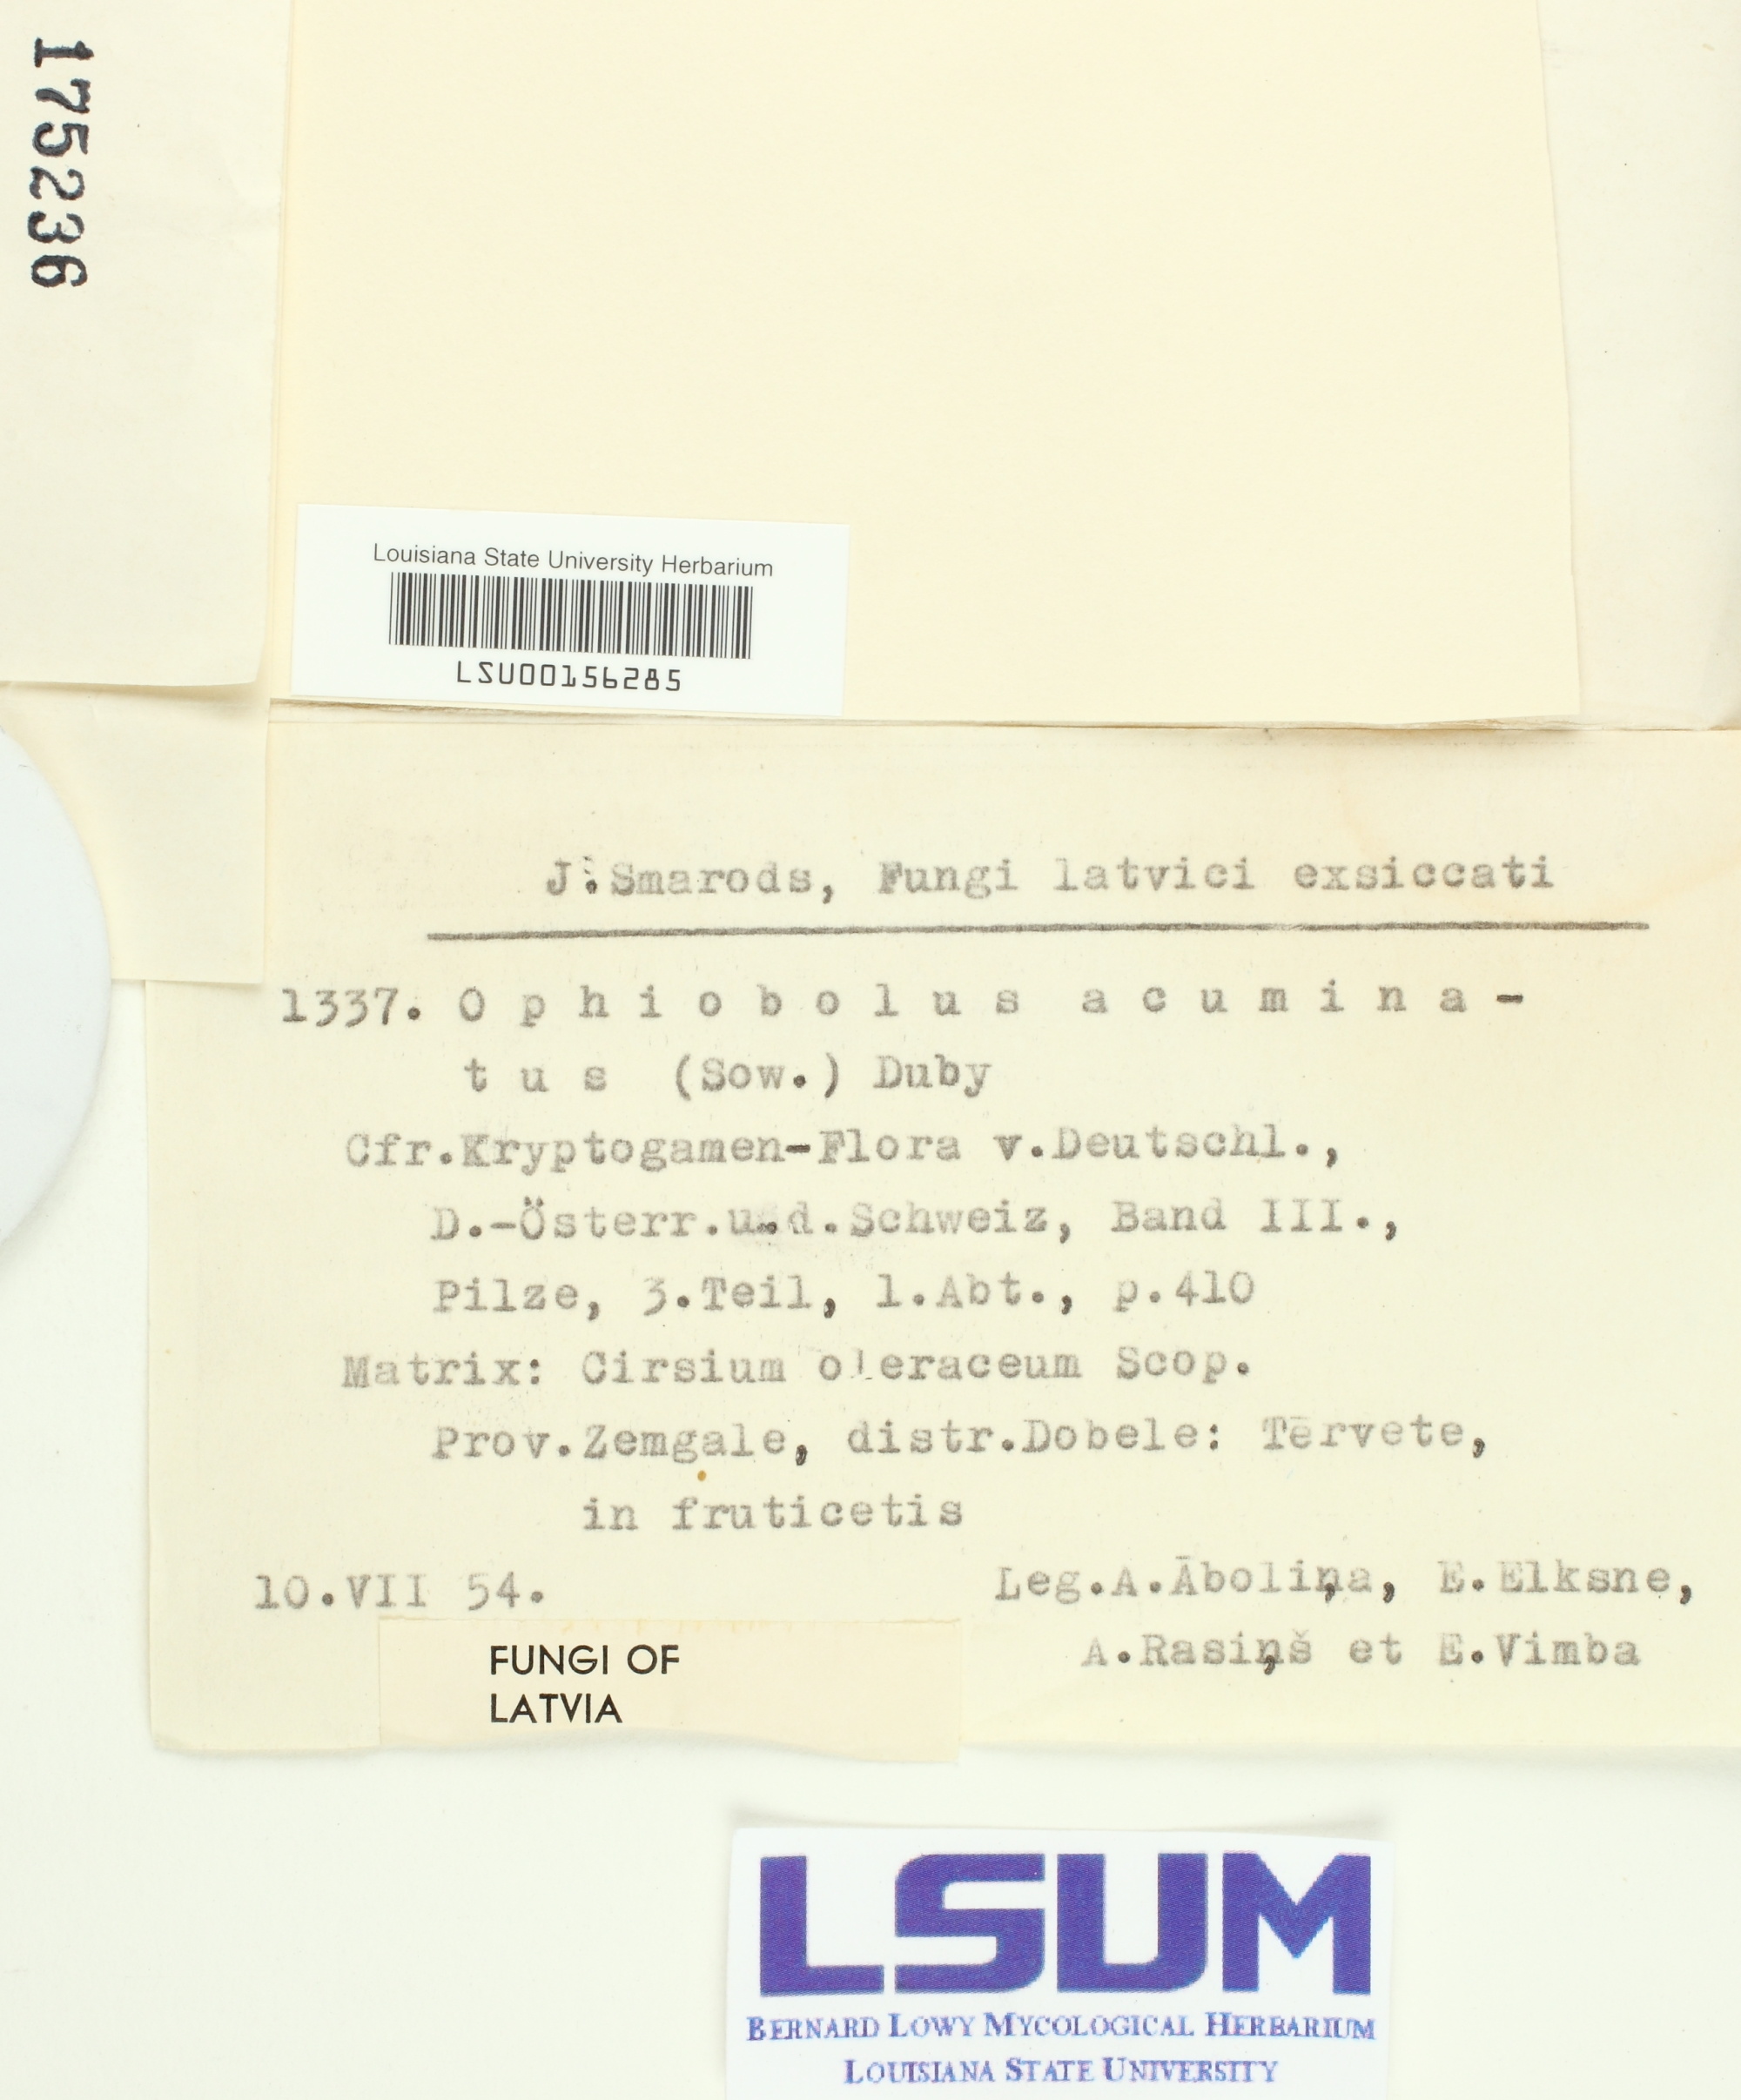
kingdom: Fungi
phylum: Ascomycota
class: Dothideomycetes
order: Pleosporales
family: Phaeosphaeriaceae
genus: Ophiobolus
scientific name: Ophiobolus acuminatus
